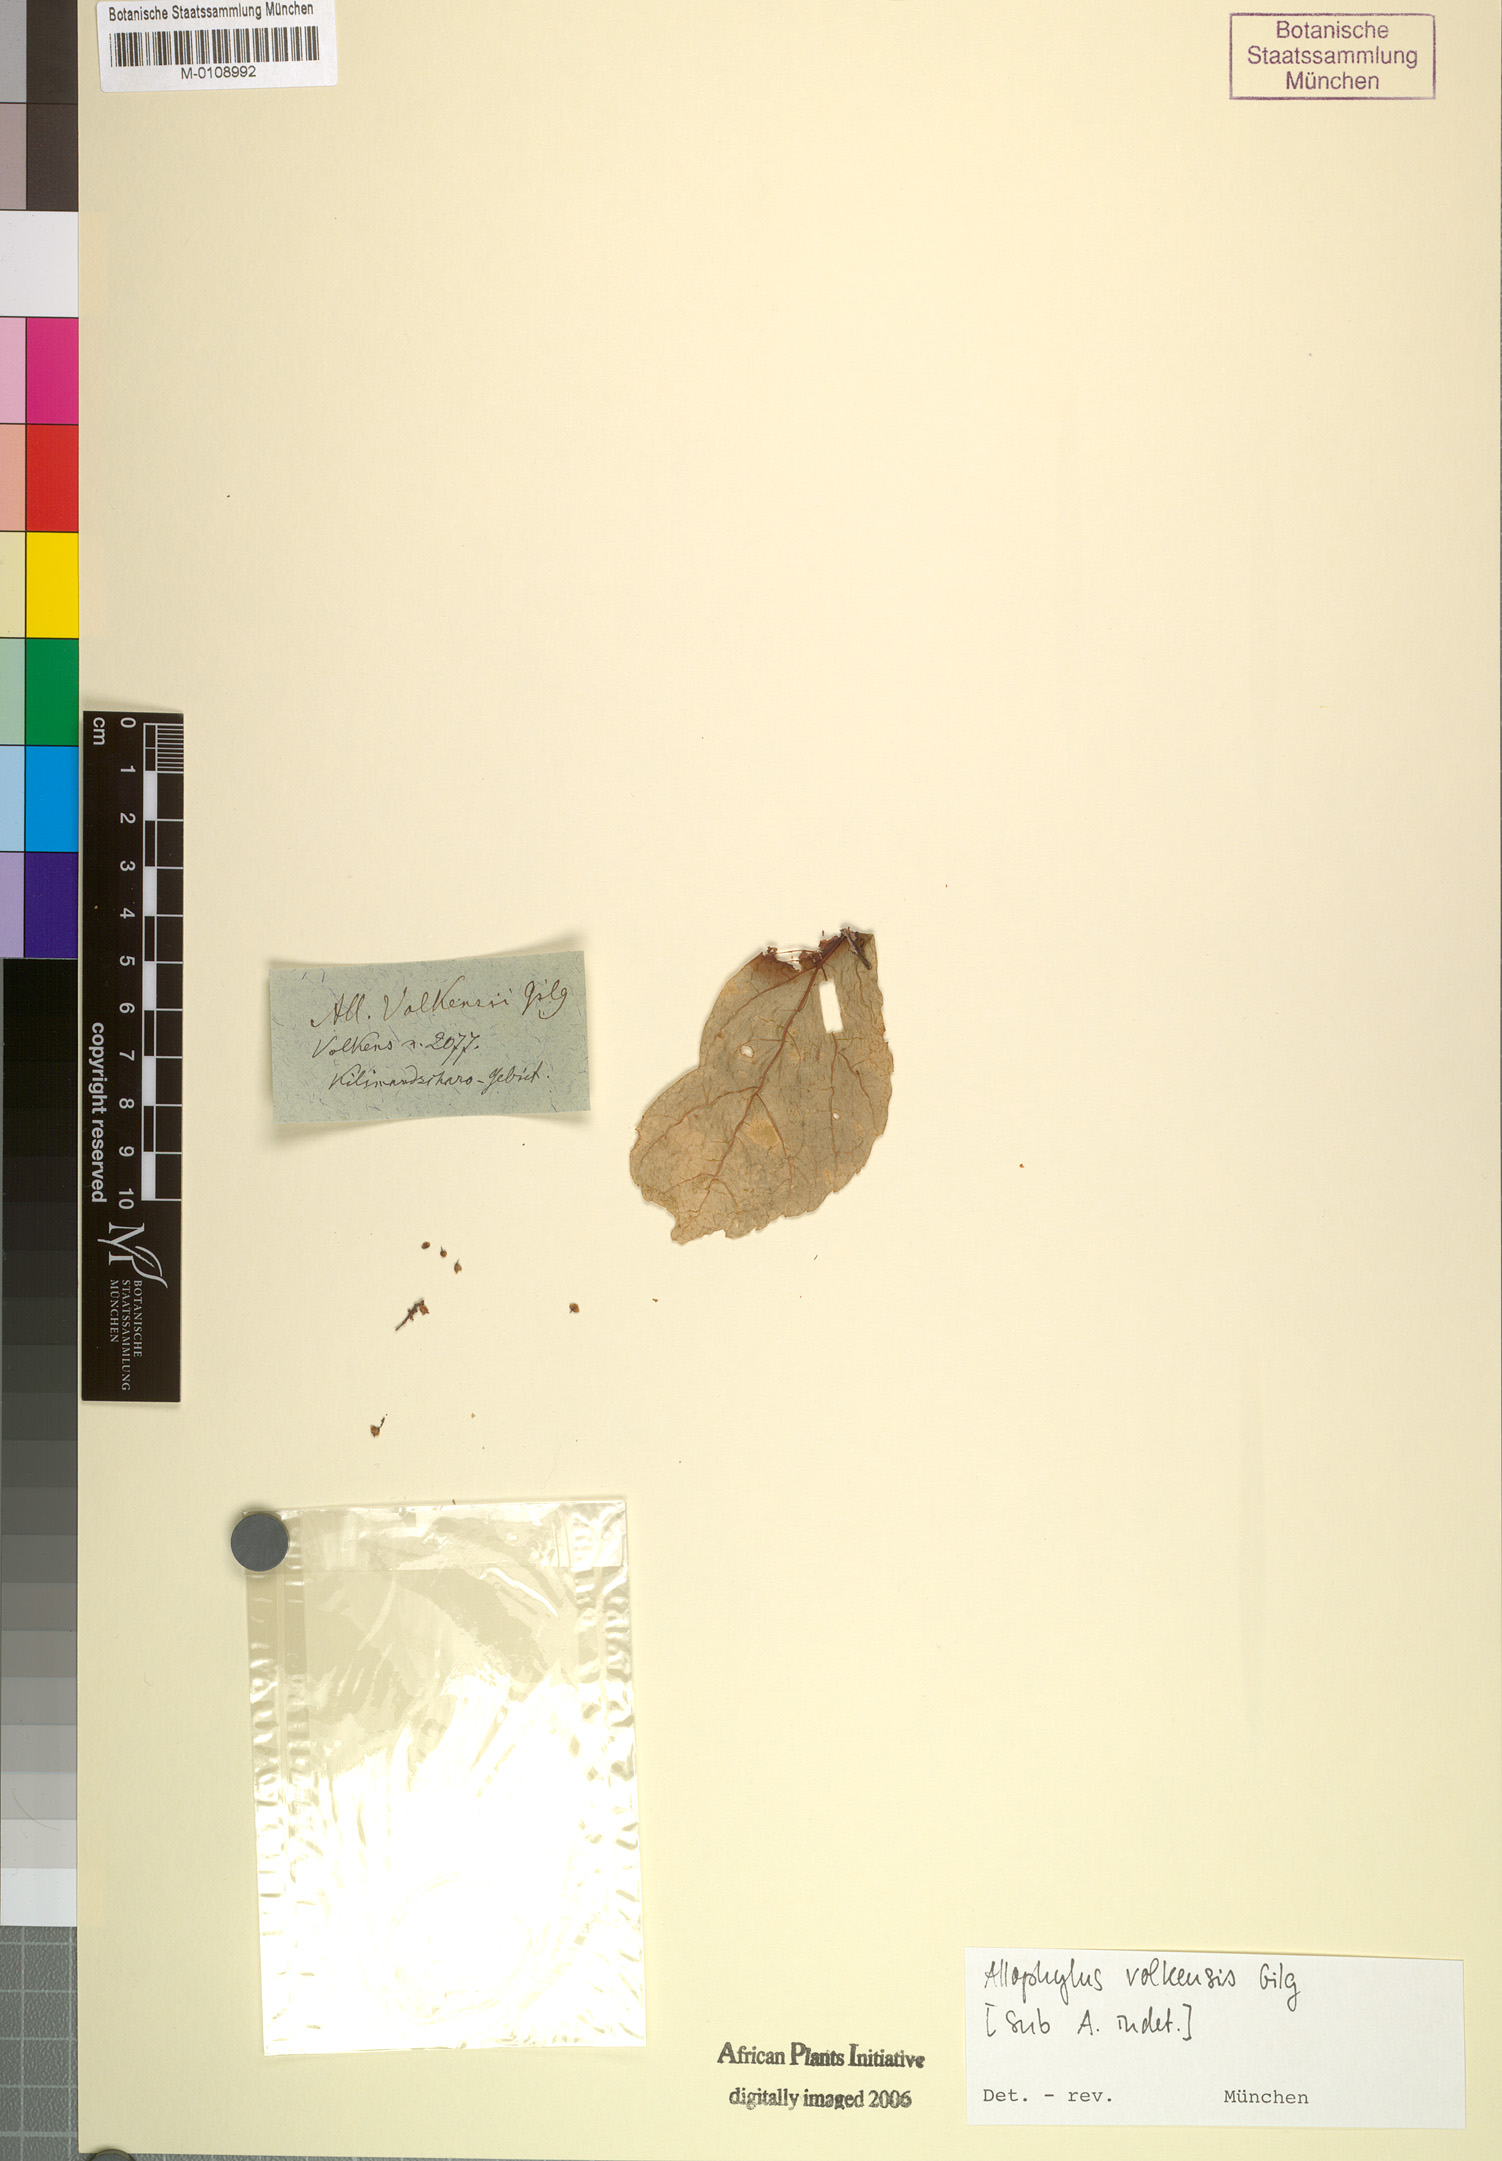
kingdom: Plantae
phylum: Tracheophyta
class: Magnoliopsida
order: Sapindales
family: Sapindaceae
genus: Allophylus
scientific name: Allophylus ferrugineus
